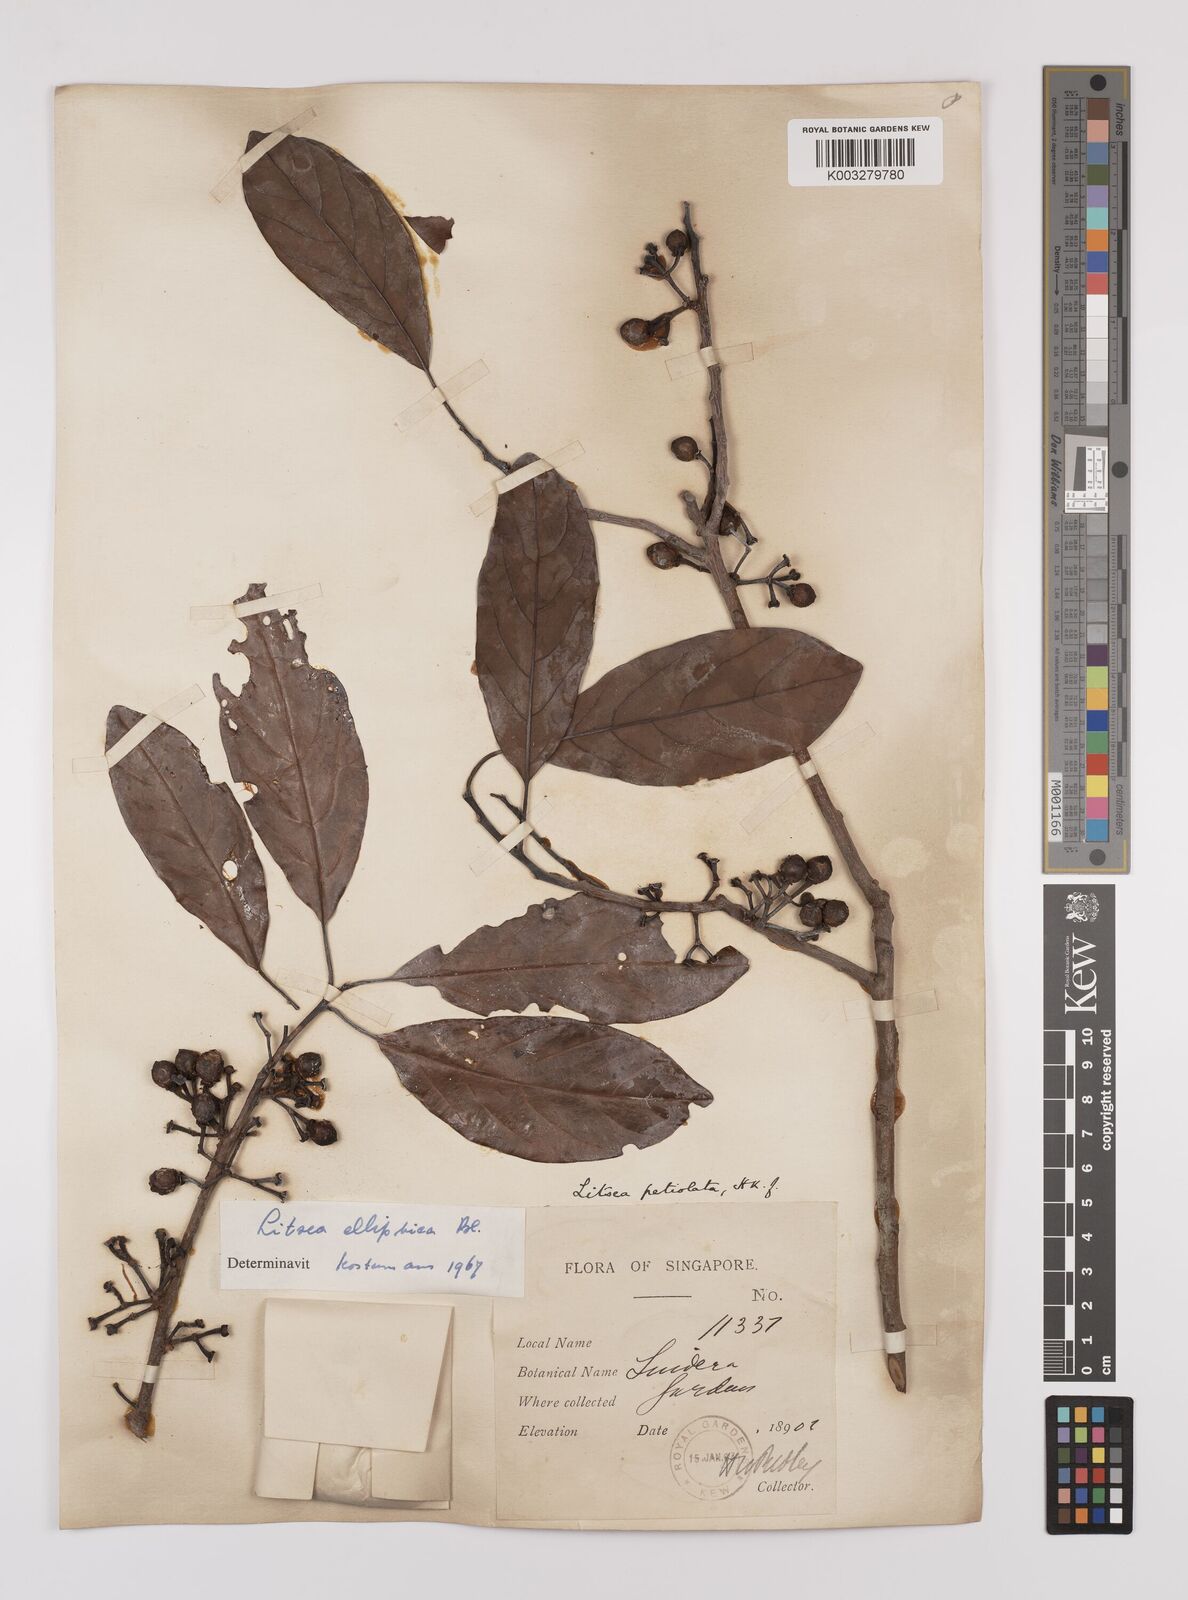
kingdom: Plantae
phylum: Tracheophyta
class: Magnoliopsida
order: Laurales
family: Lauraceae
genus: Litsea
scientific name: Litsea elliptica
